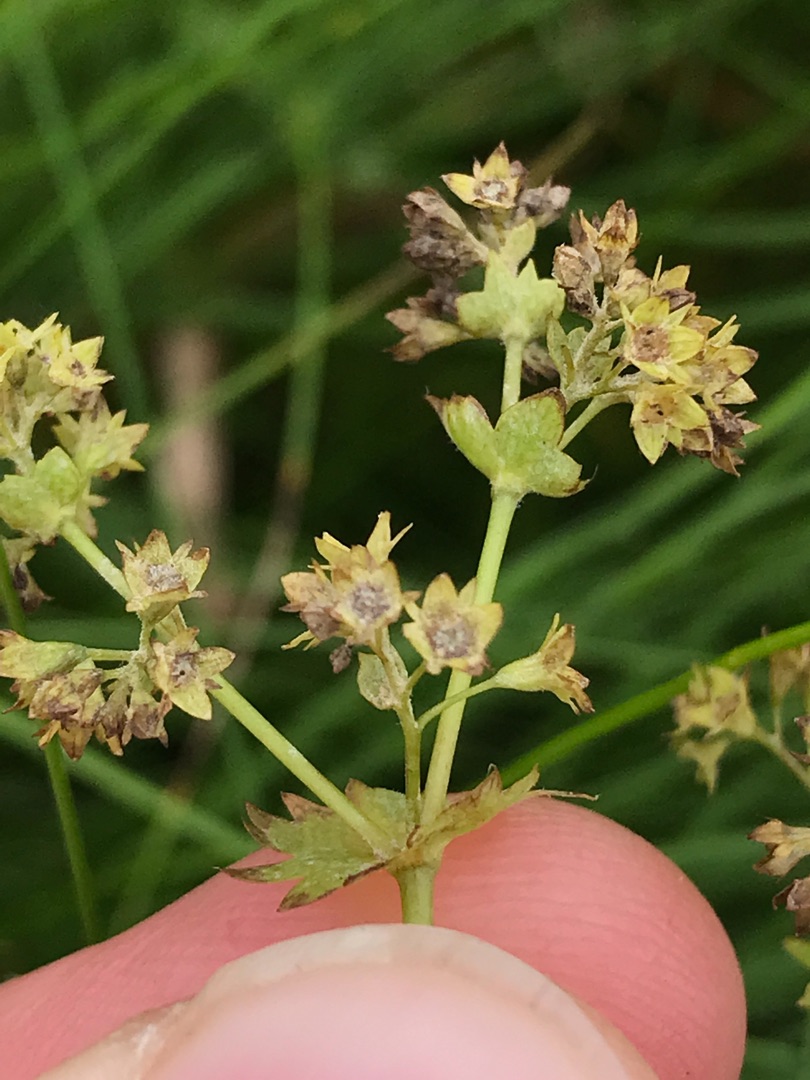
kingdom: Plantae
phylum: Tracheophyta
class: Magnoliopsida
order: Rosales
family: Rosaceae
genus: Alchemilla
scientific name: Alchemilla glabra
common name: Glat løvefod
